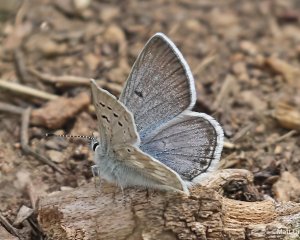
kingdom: Animalia
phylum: Arthropoda
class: Insecta
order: Lepidoptera
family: Lycaenidae
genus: Agriades
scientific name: Agriades glandon
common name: Arctic Blue
